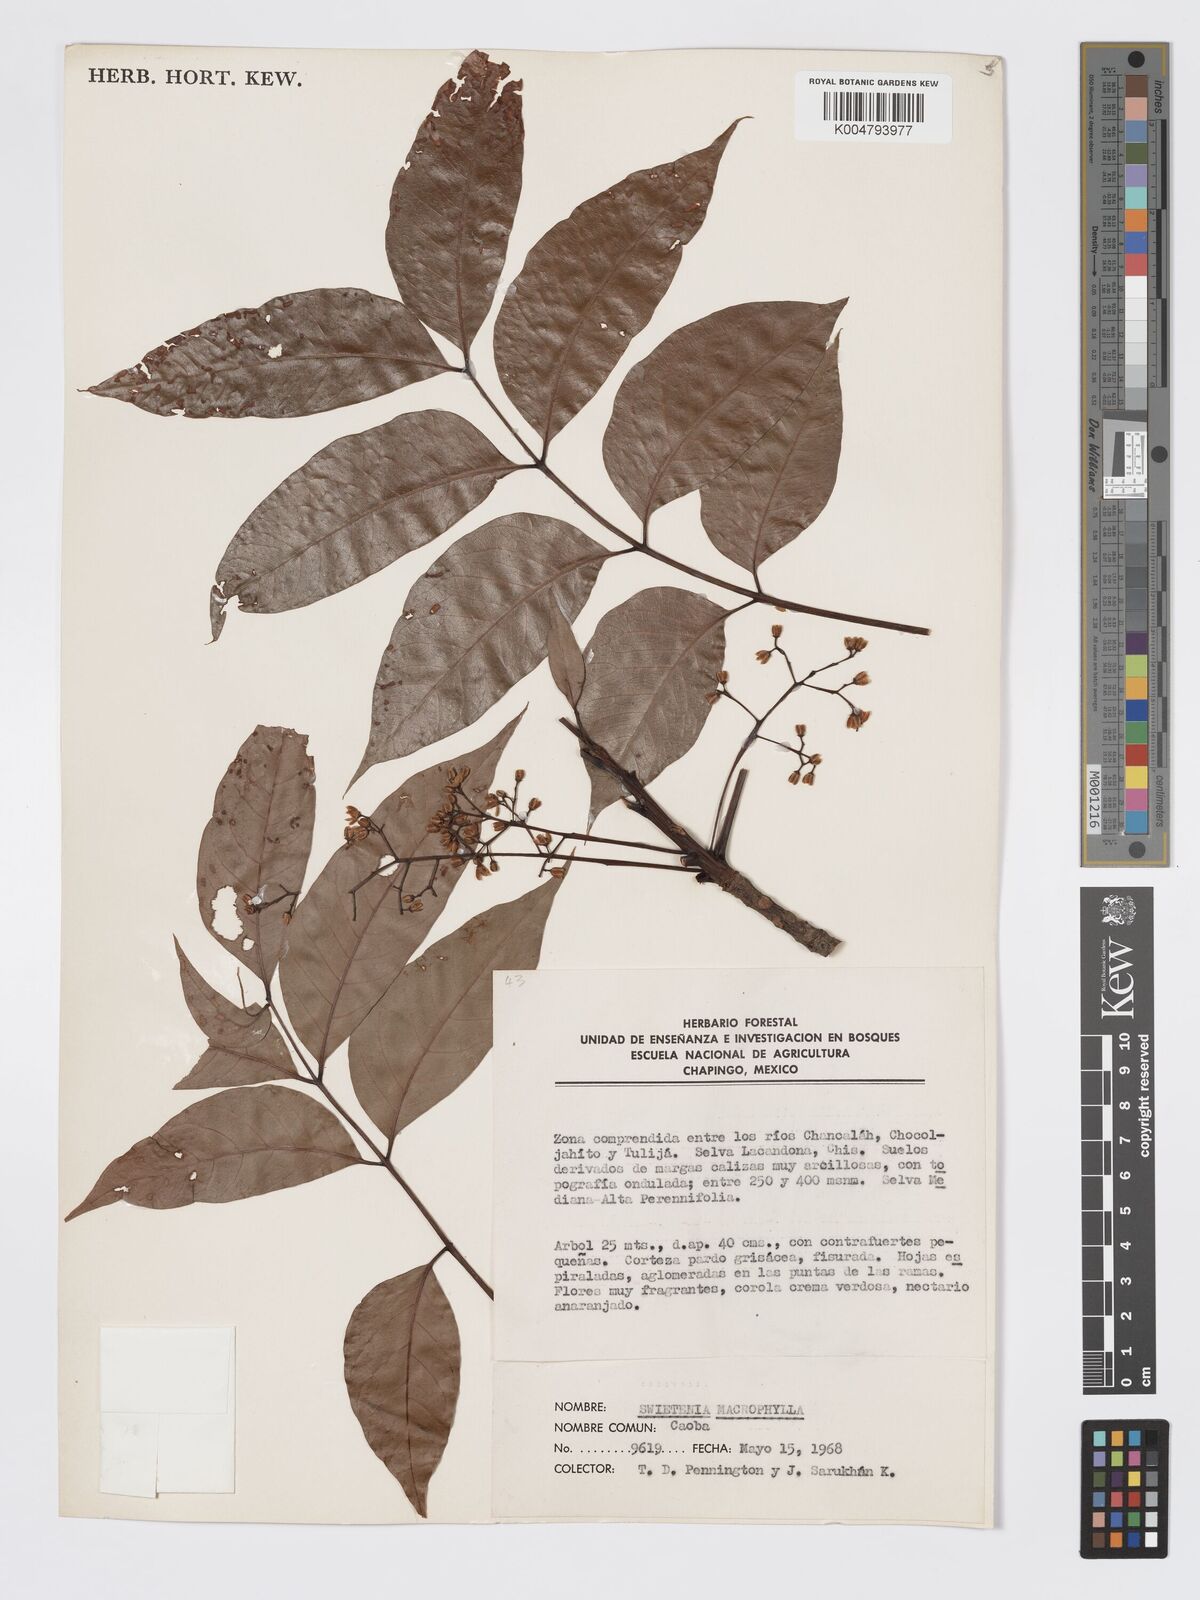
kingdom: Plantae
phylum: Tracheophyta
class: Magnoliopsida
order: Sapindales
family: Meliaceae
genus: Swietenia
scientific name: Swietenia macrophylla
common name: Honduras mahogany
